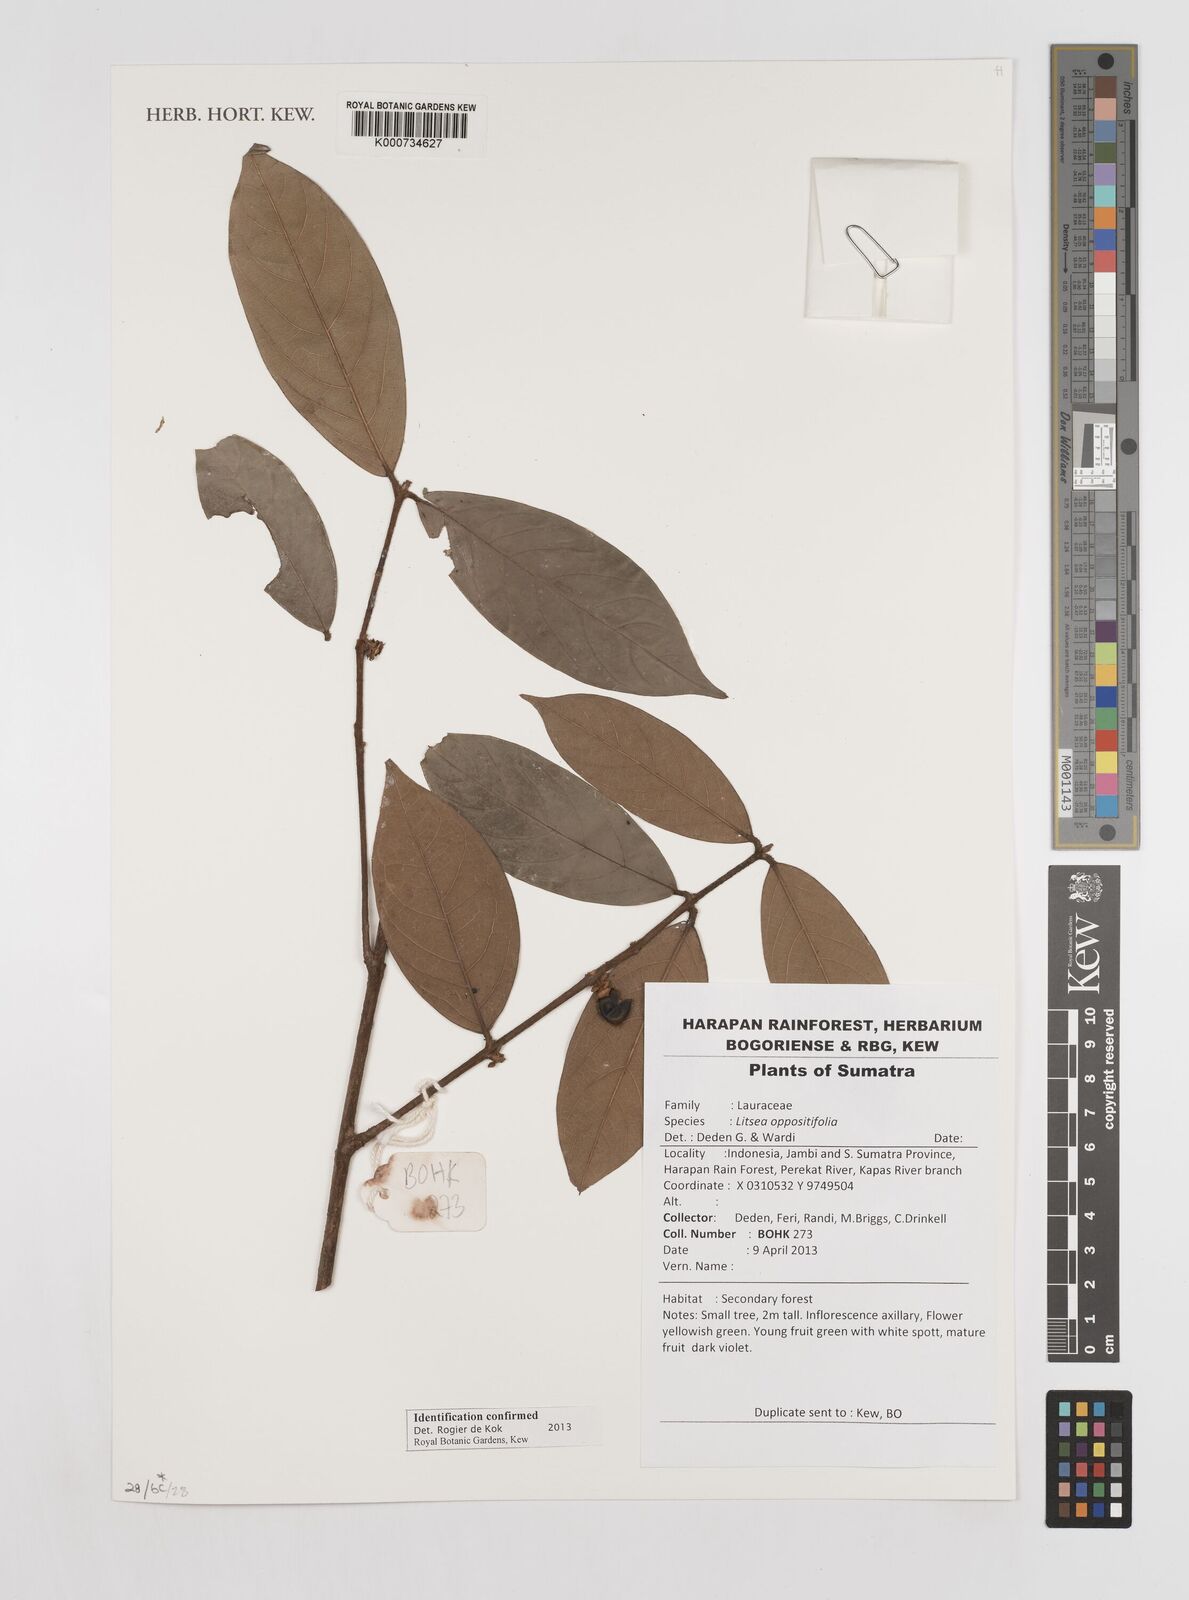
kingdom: Plantae
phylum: Tracheophyta
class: Magnoliopsida
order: Laurales
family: Lauraceae
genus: Litsea
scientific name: Litsea oppositifolia
